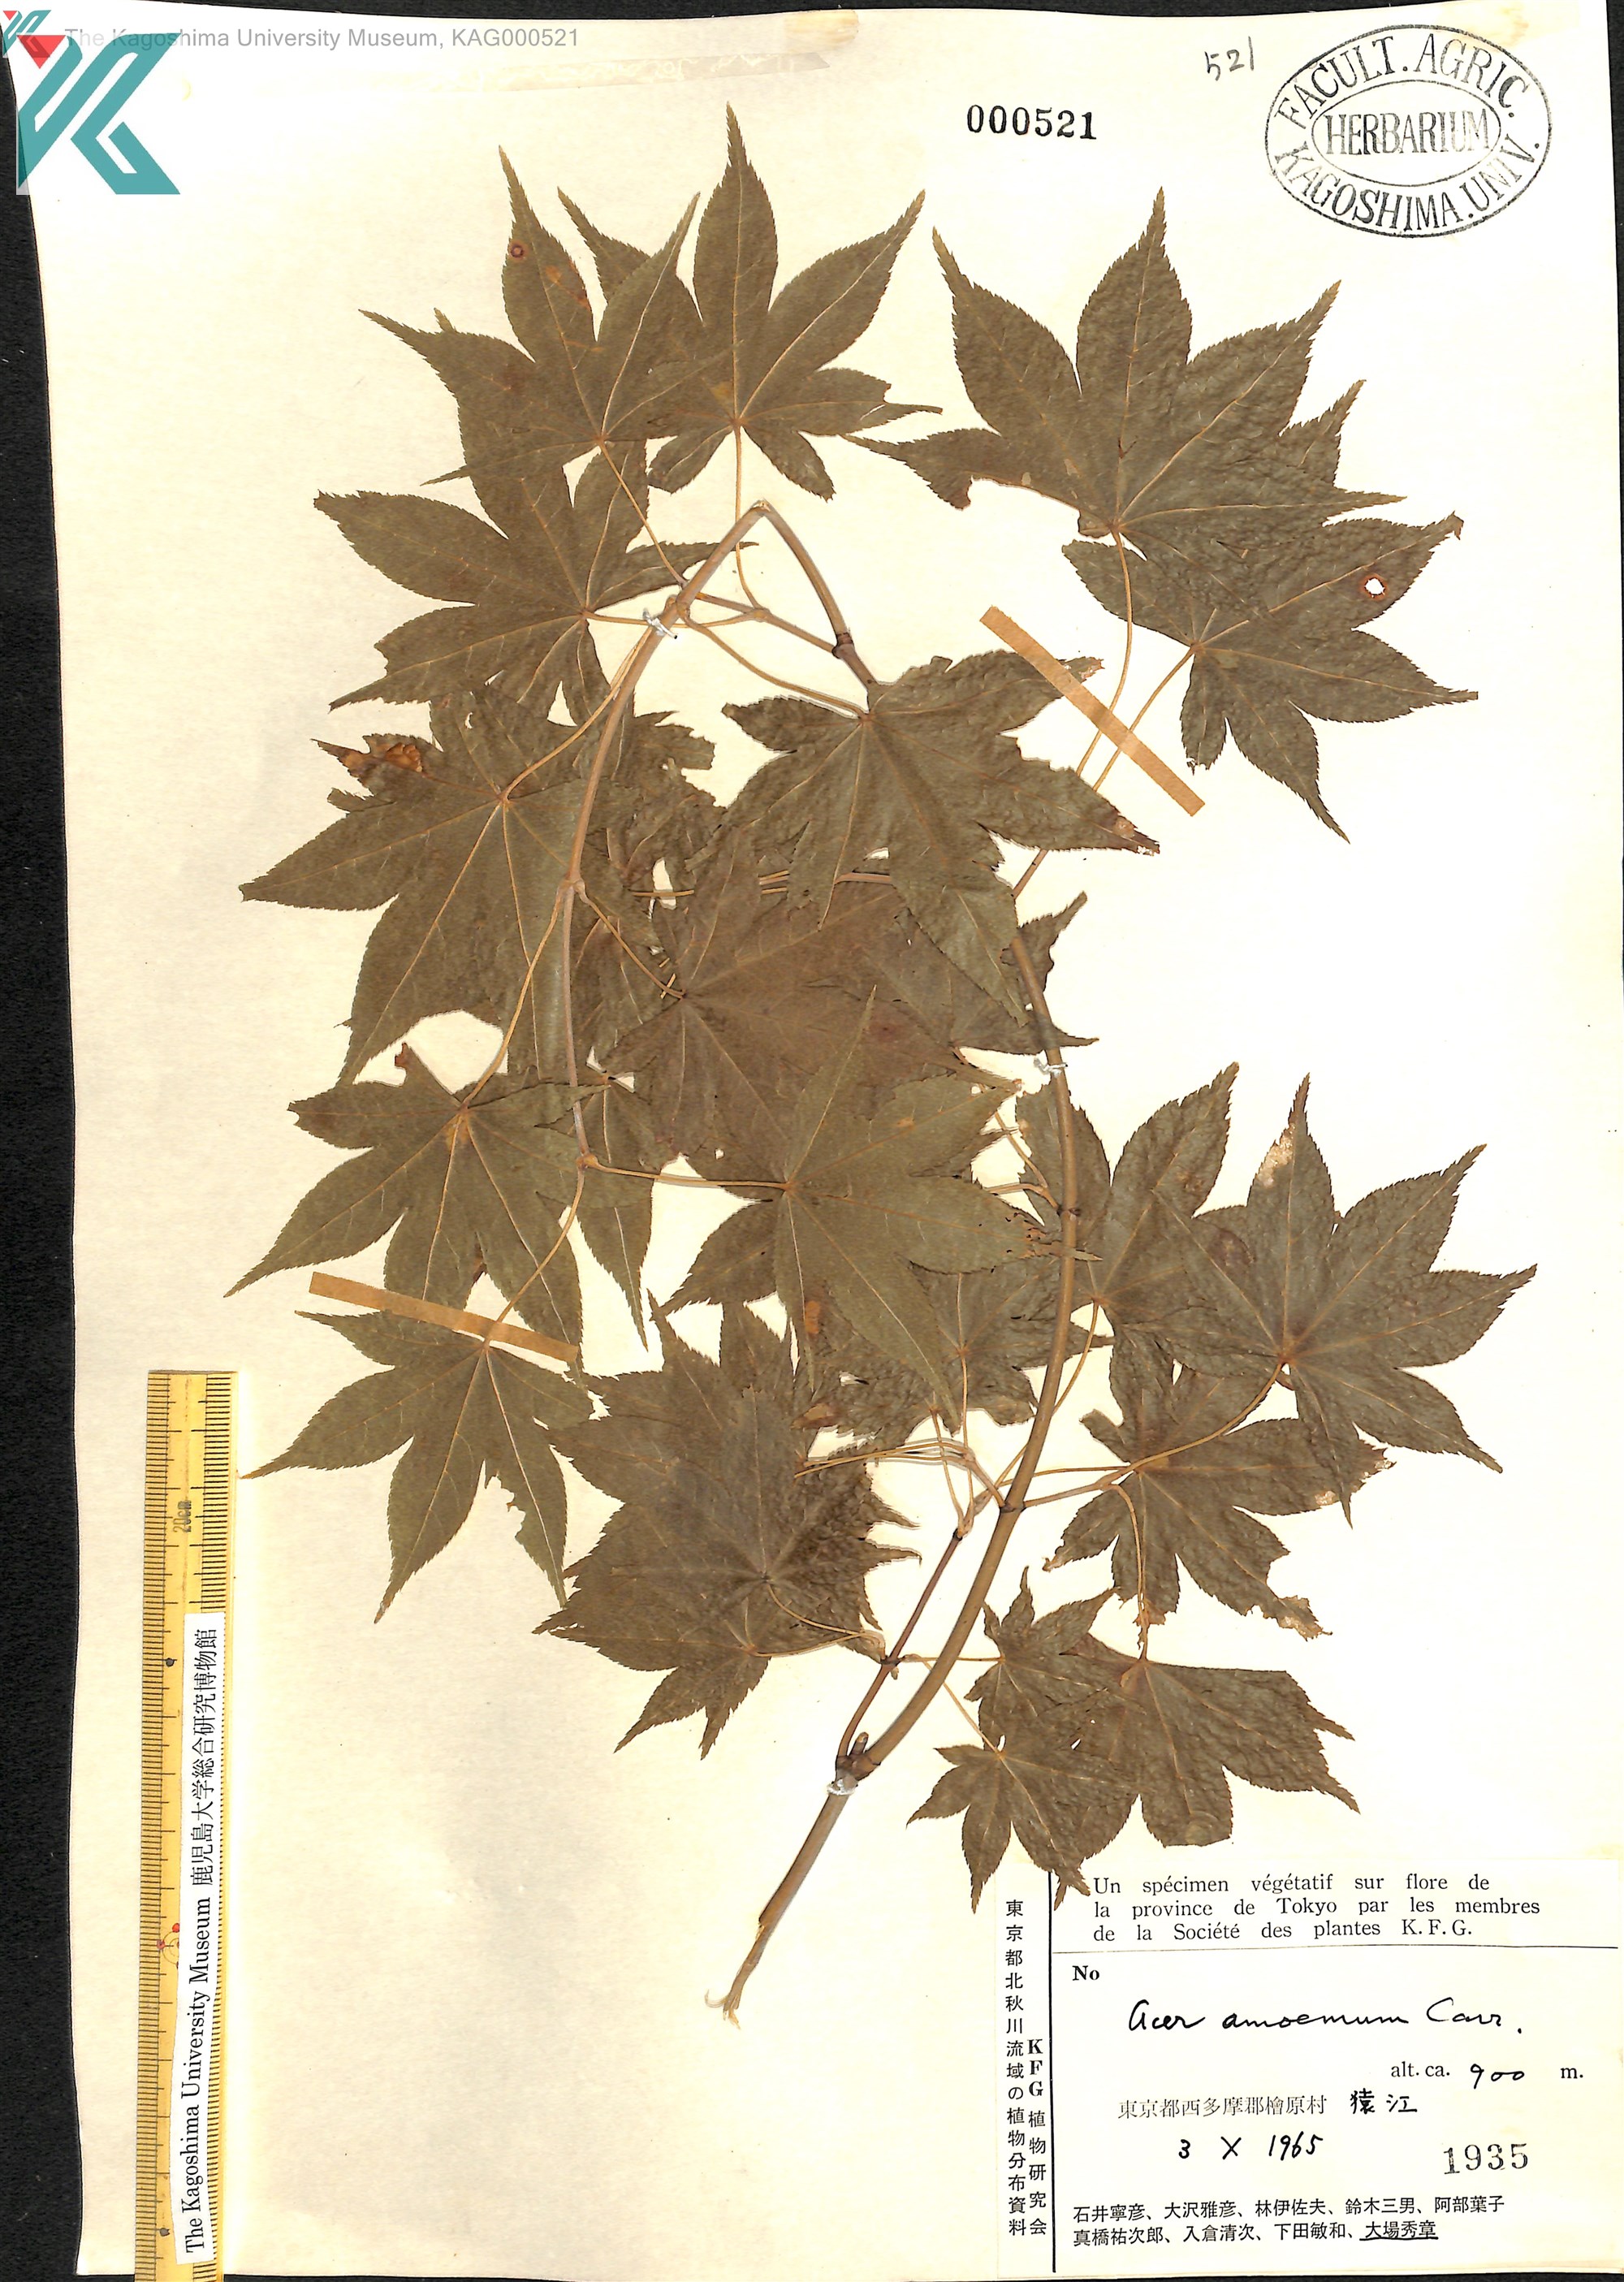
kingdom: Plantae
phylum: Tracheophyta
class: Magnoliopsida
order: Sapindales
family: Sapindaceae
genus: Acer
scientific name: Acer palmatum
